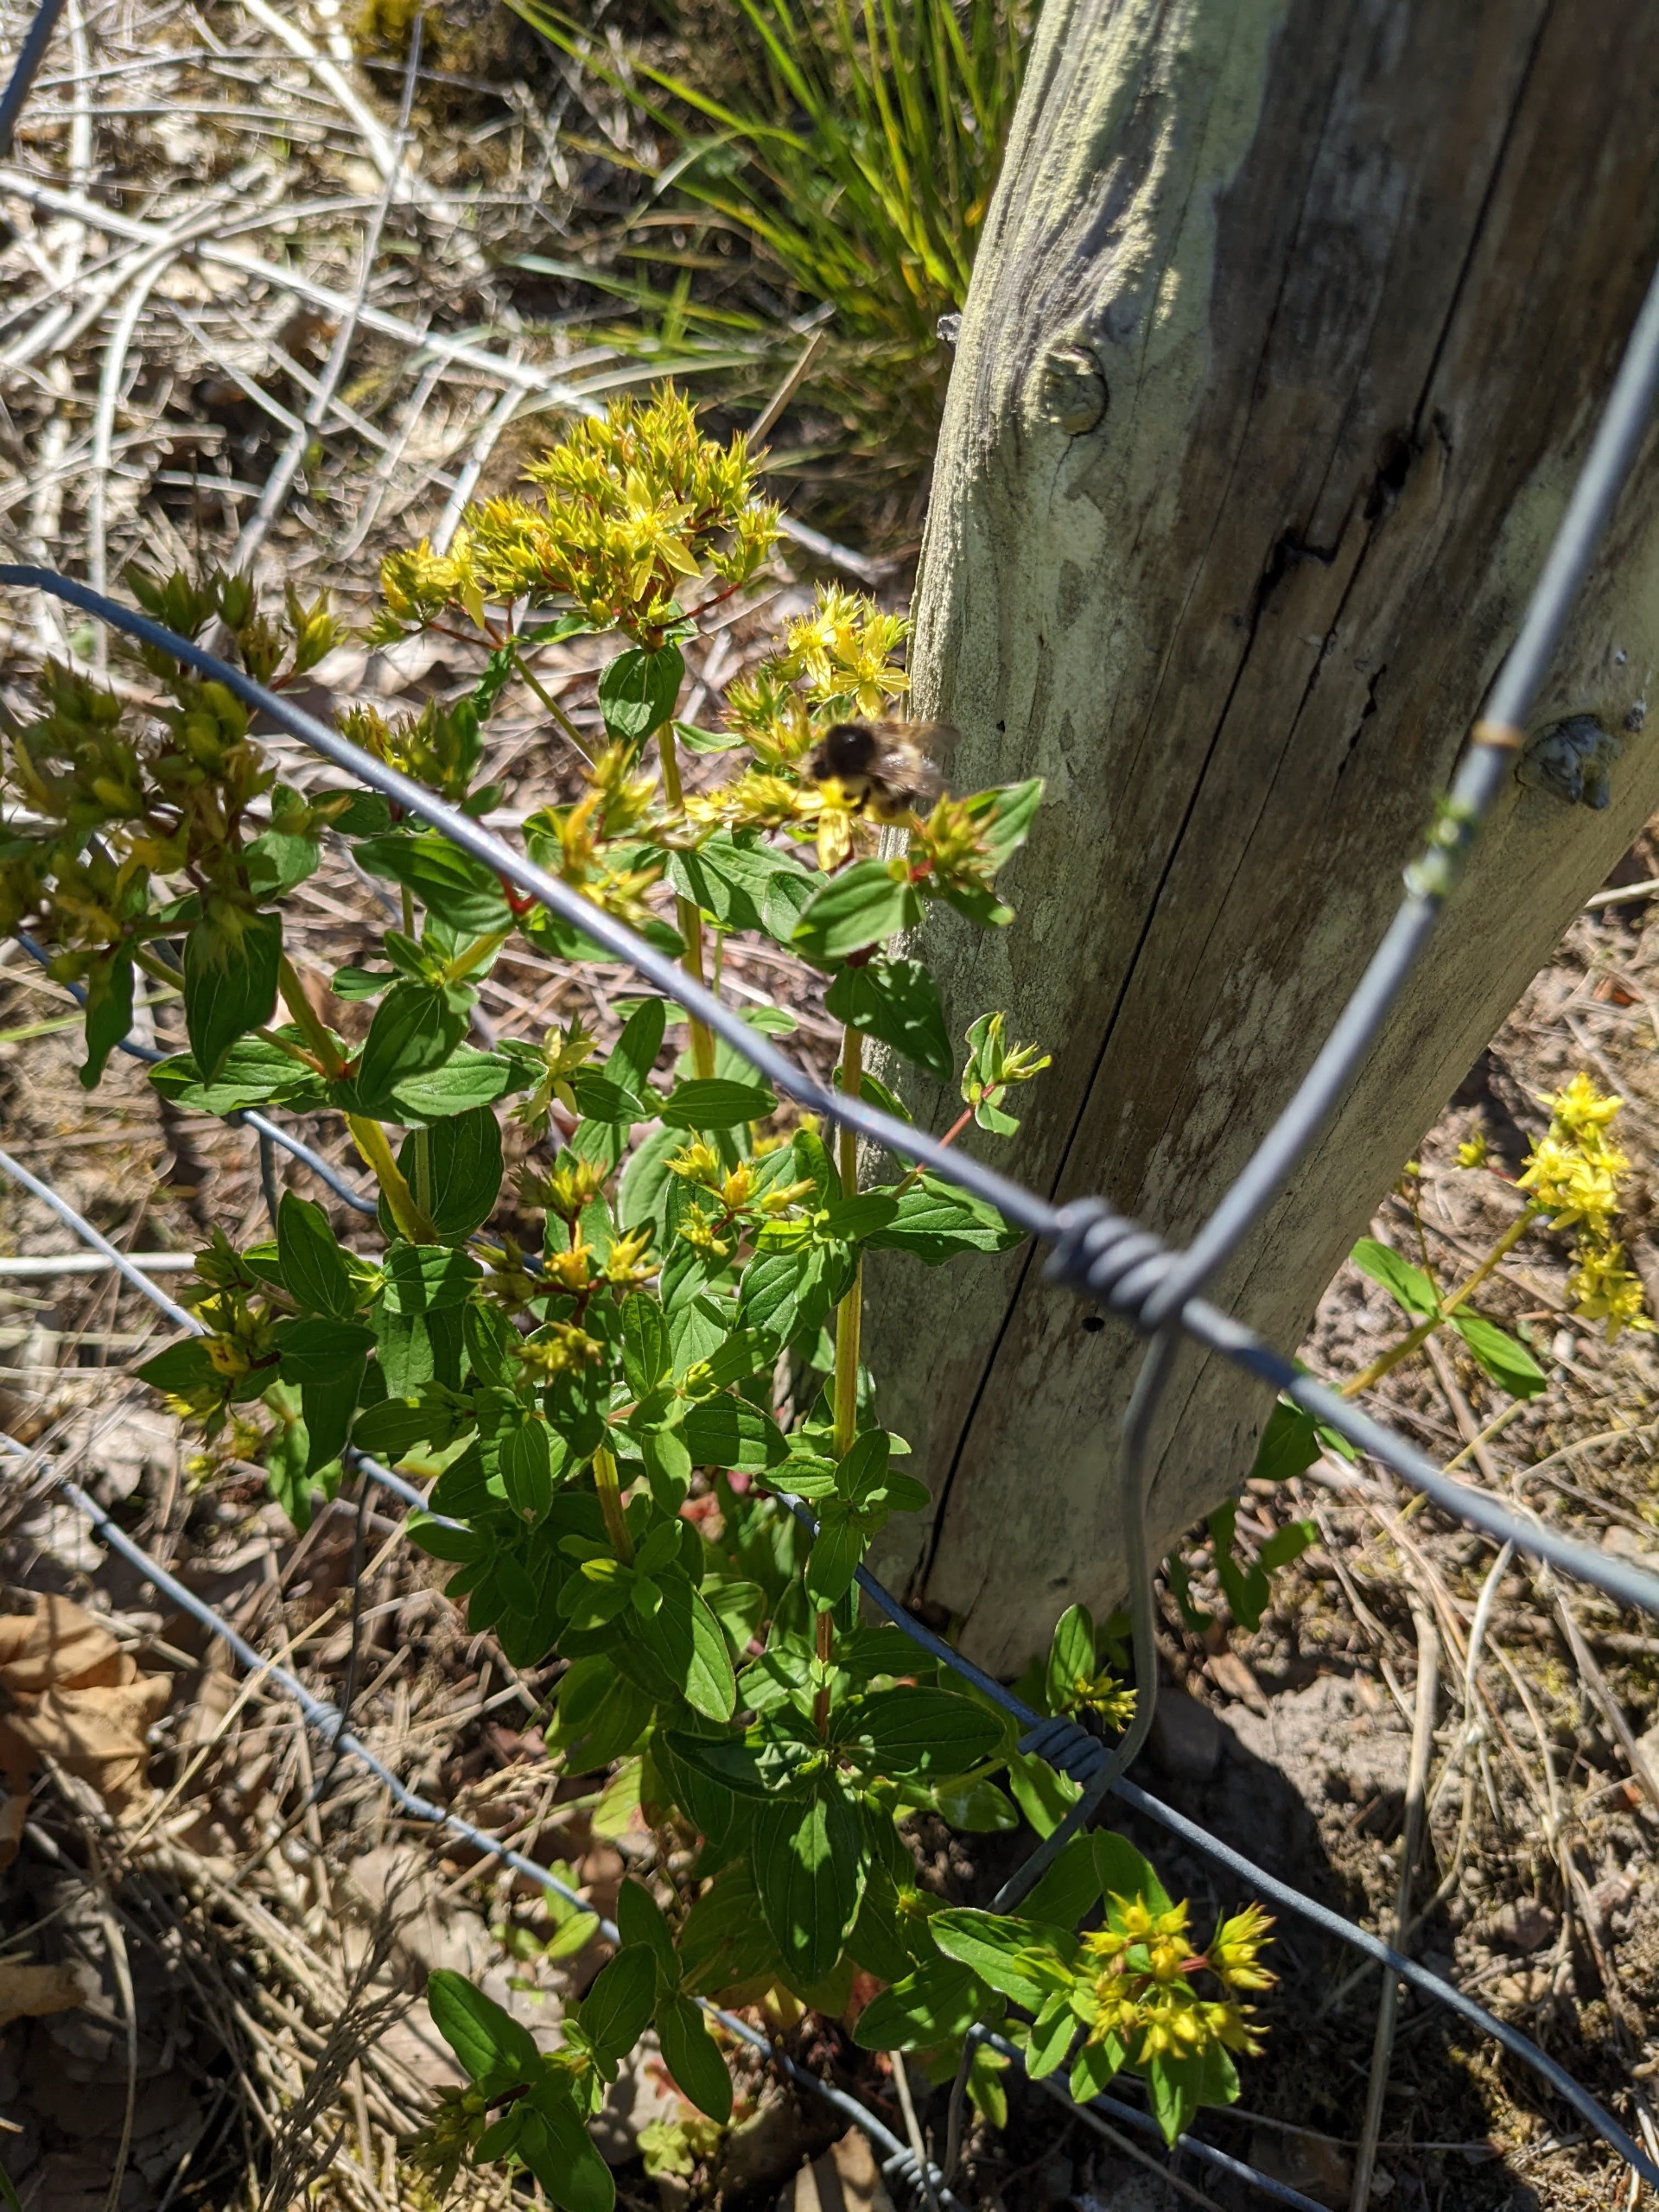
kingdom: Plantae
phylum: Tracheophyta
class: Magnoliopsida
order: Malpighiales
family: Hypericaceae
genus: Hypericum
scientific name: Hypericum tetrapterum
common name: Vinget perikon
